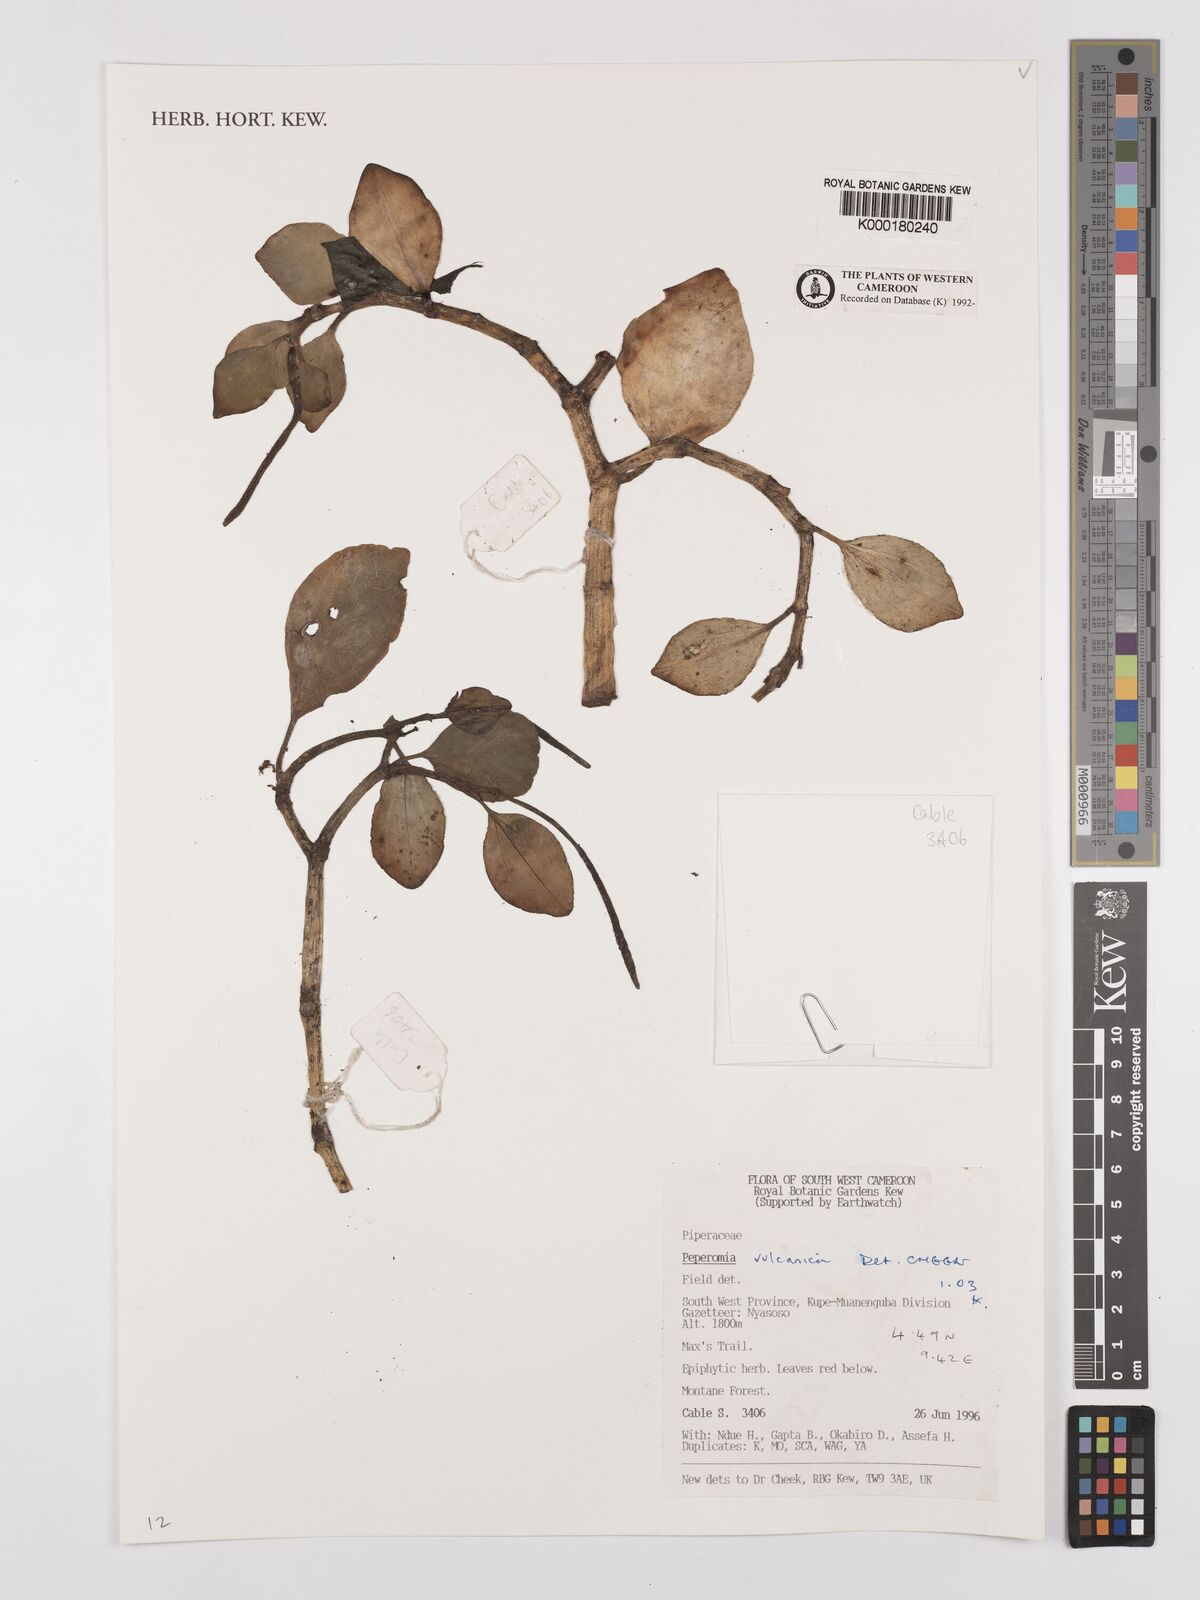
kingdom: Plantae
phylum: Tracheophyta
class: Magnoliopsida
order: Piperales
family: Piperaceae
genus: Peperomia
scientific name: Peperomia vulcanica
